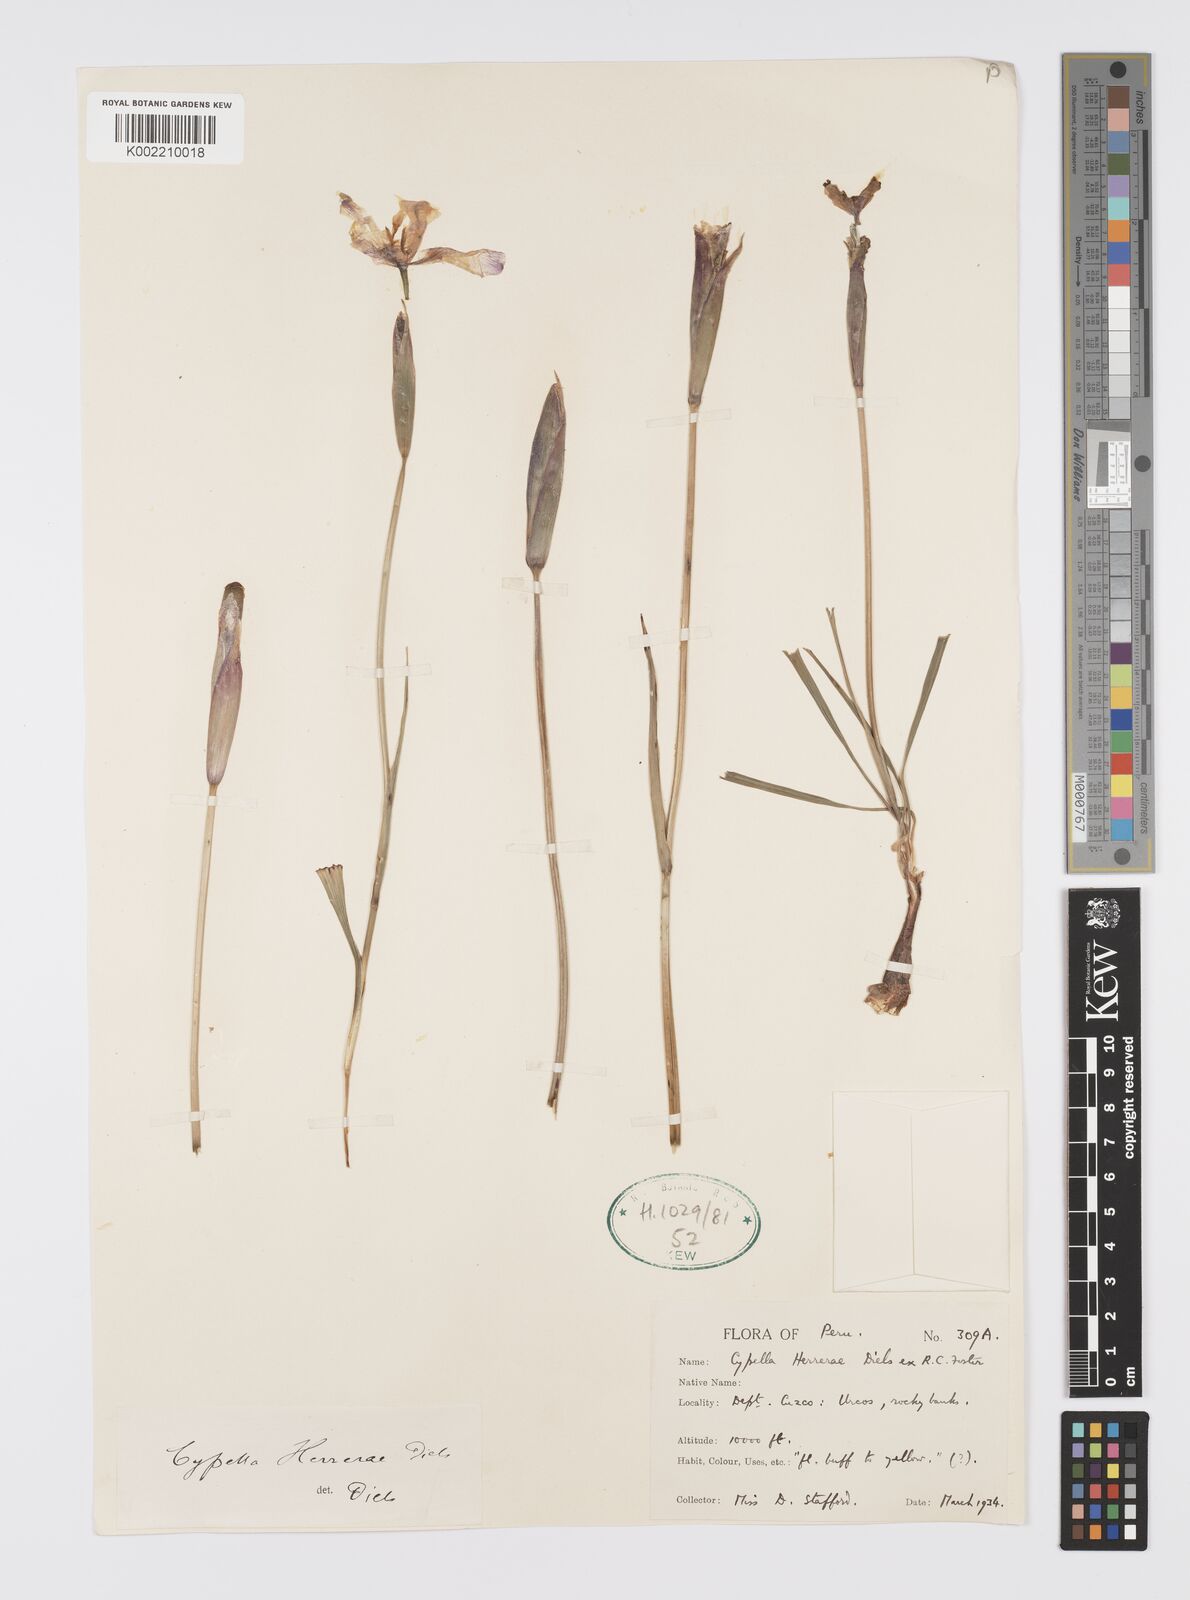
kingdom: Plantae
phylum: Tracheophyta
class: Liliopsida
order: Asparagales
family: Iridaceae
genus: Hesperoxiphion
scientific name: Hesperoxiphion herrerae
